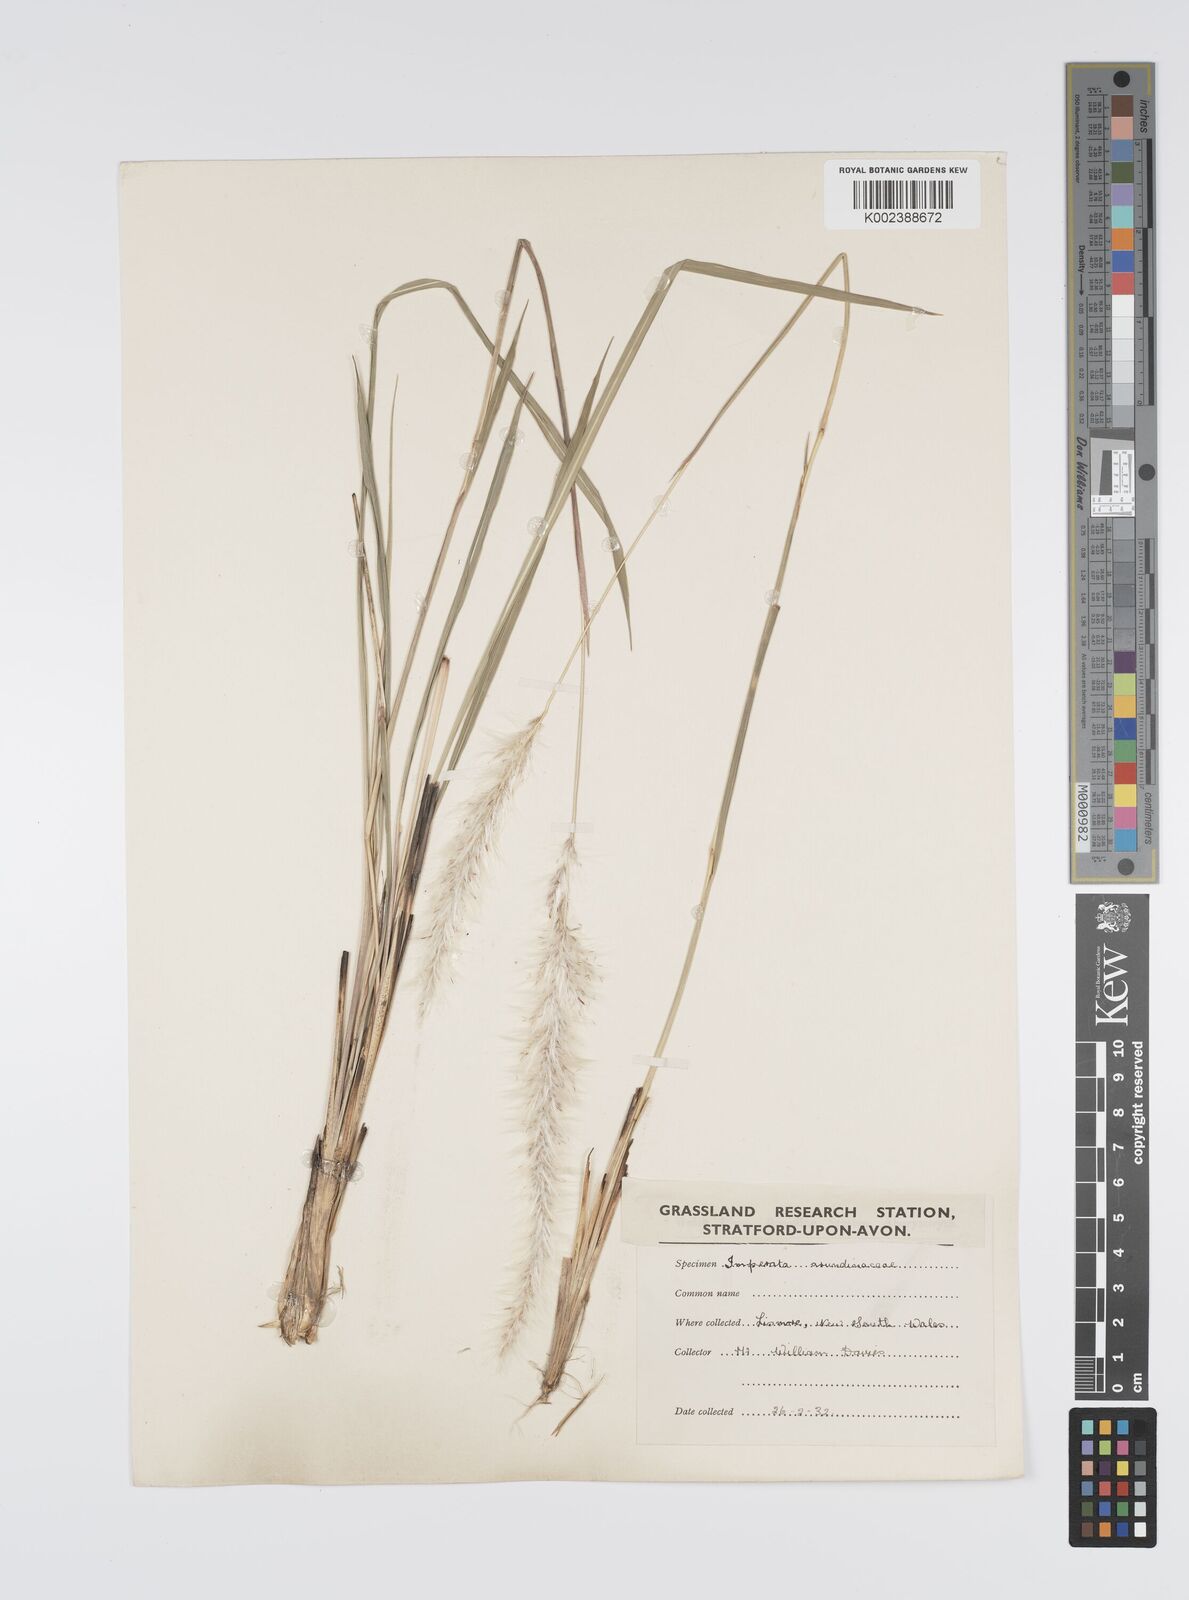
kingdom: Plantae
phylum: Tracheophyta
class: Liliopsida
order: Poales
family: Poaceae
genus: Imperata
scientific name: Imperata cylindrica
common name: Cogongrass
